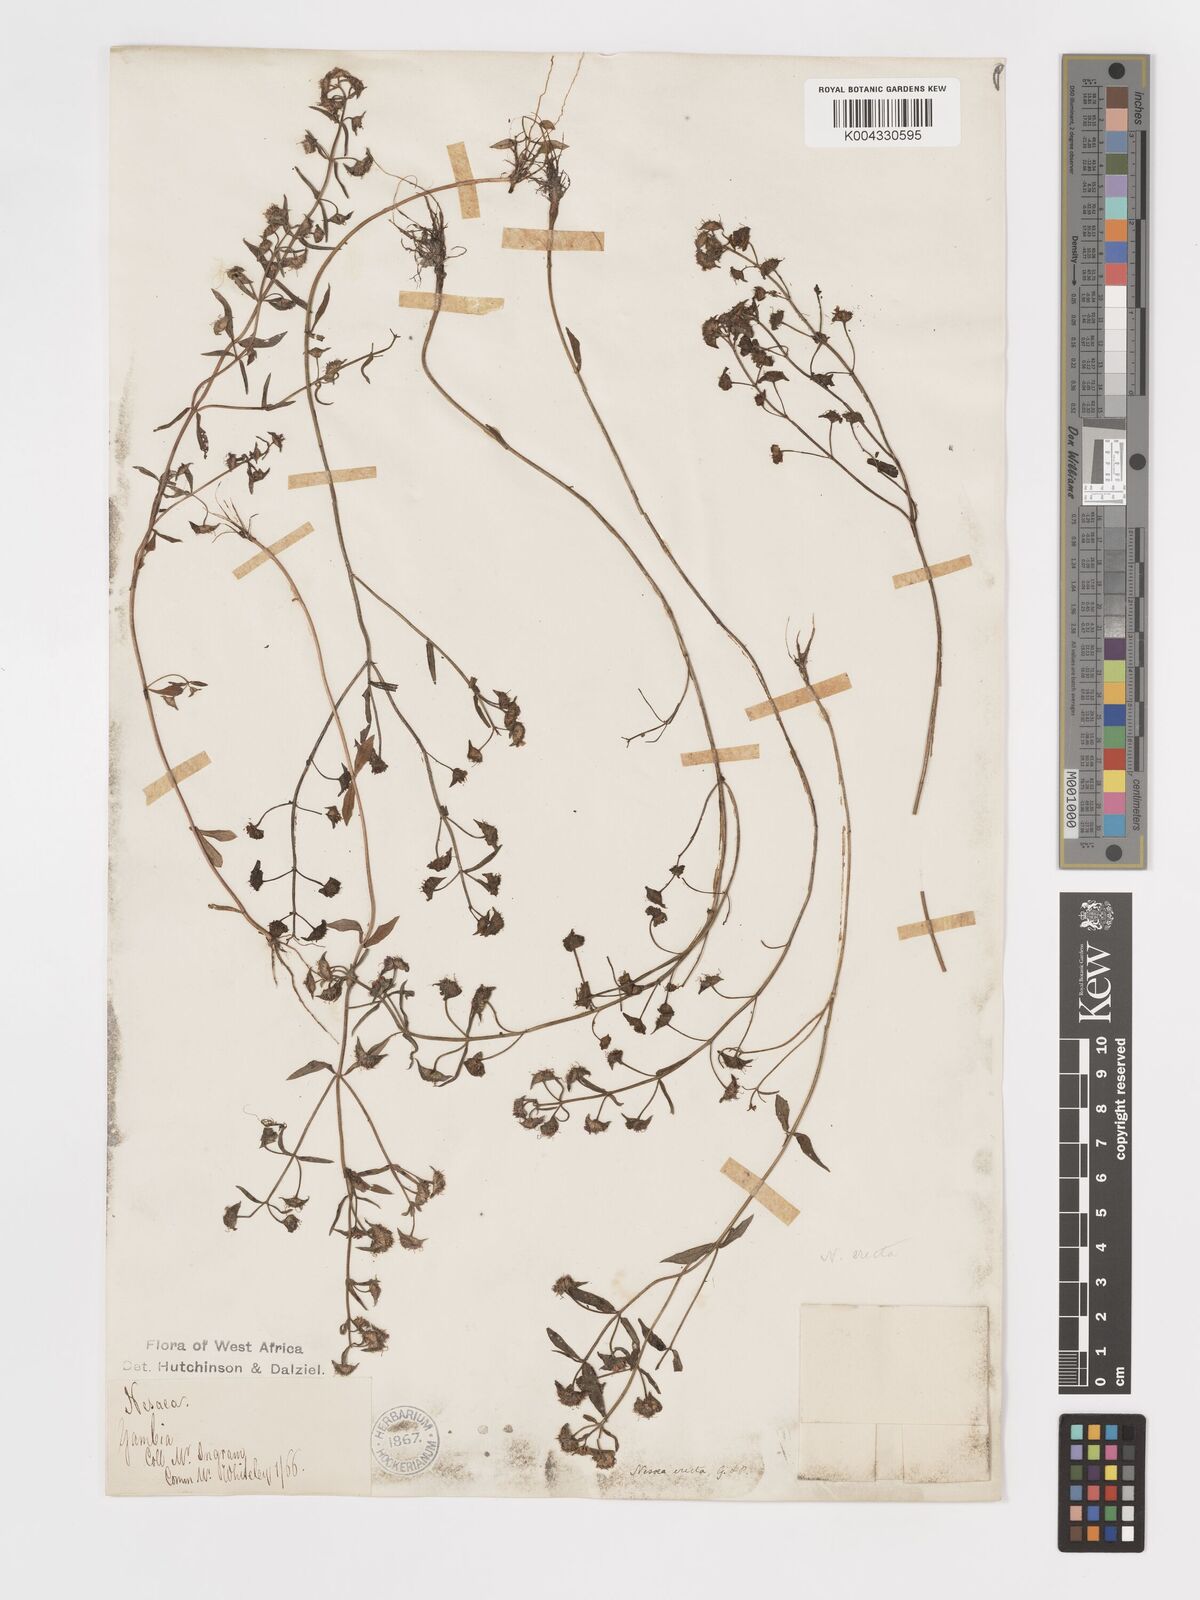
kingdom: Plantae
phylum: Tracheophyta
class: Magnoliopsida
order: Myrtales
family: Lythraceae
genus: Ammannia
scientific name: Ammannia erecta
